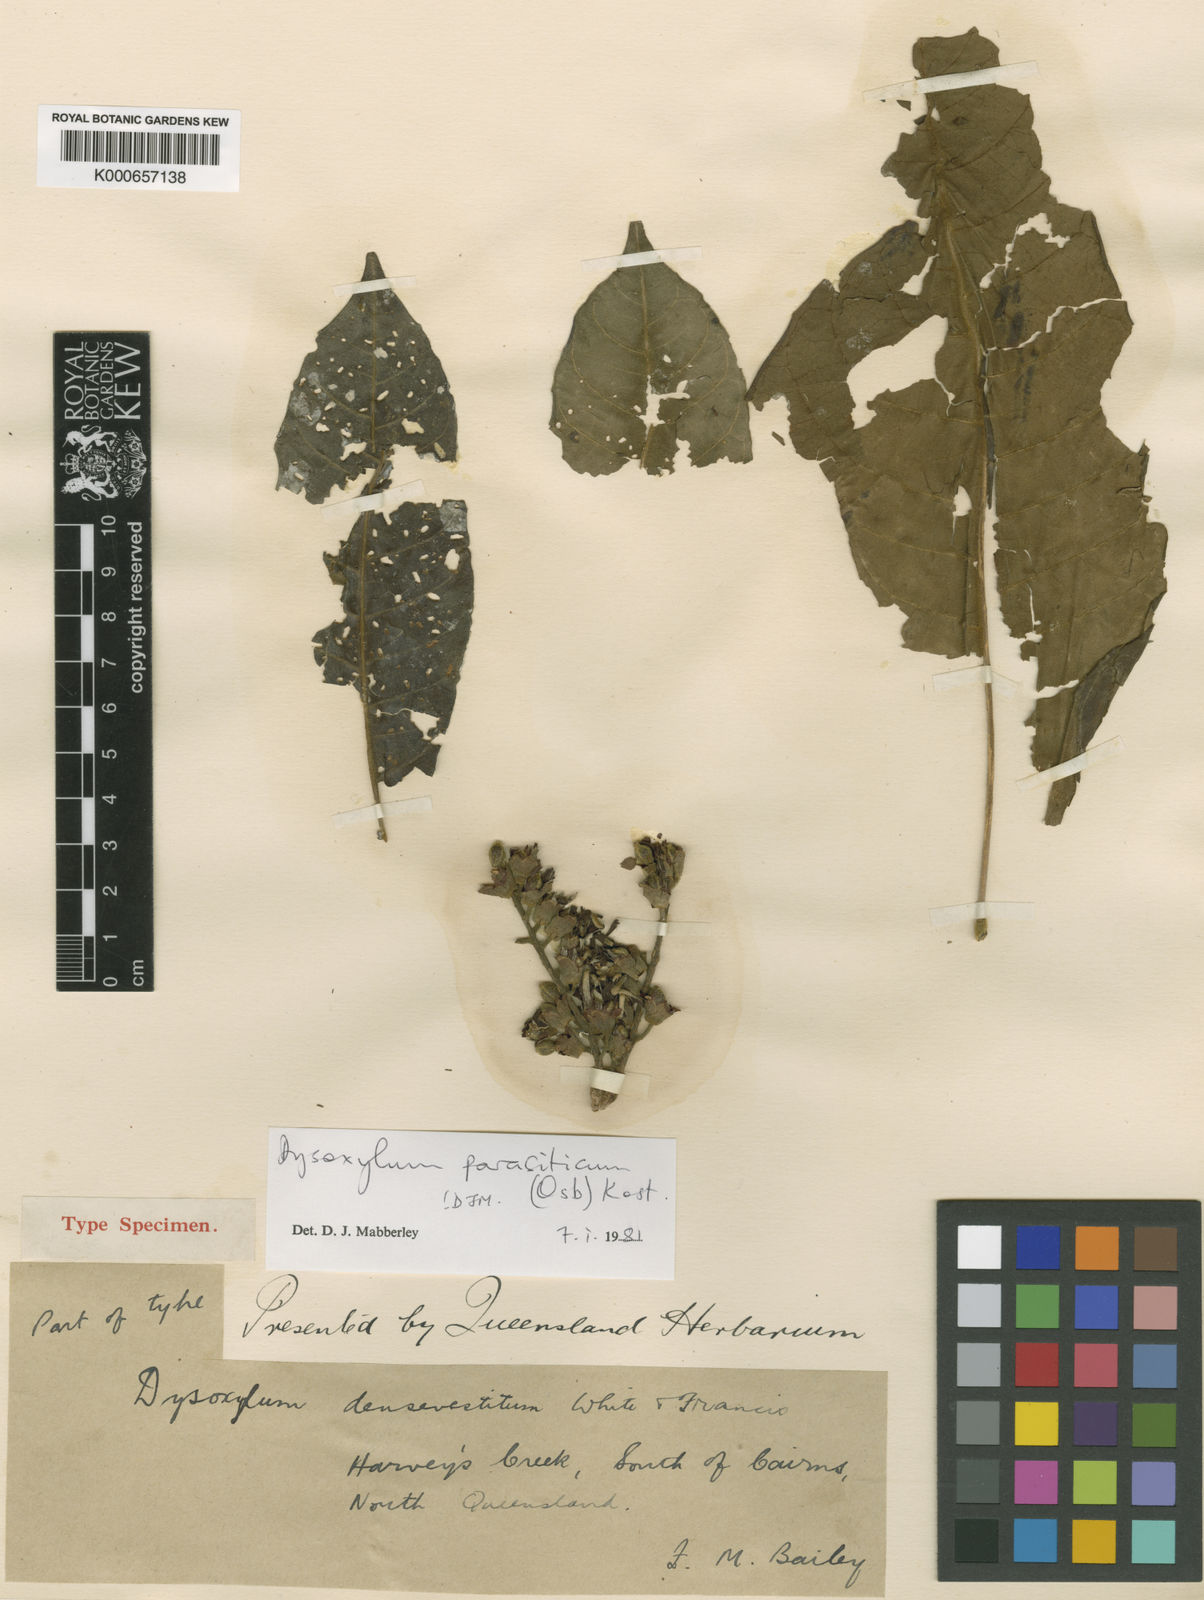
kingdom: Plantae
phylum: Tracheophyta
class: Magnoliopsida
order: Sapindales
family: Meliaceae
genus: Epicharis
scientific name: Epicharis parasitica
